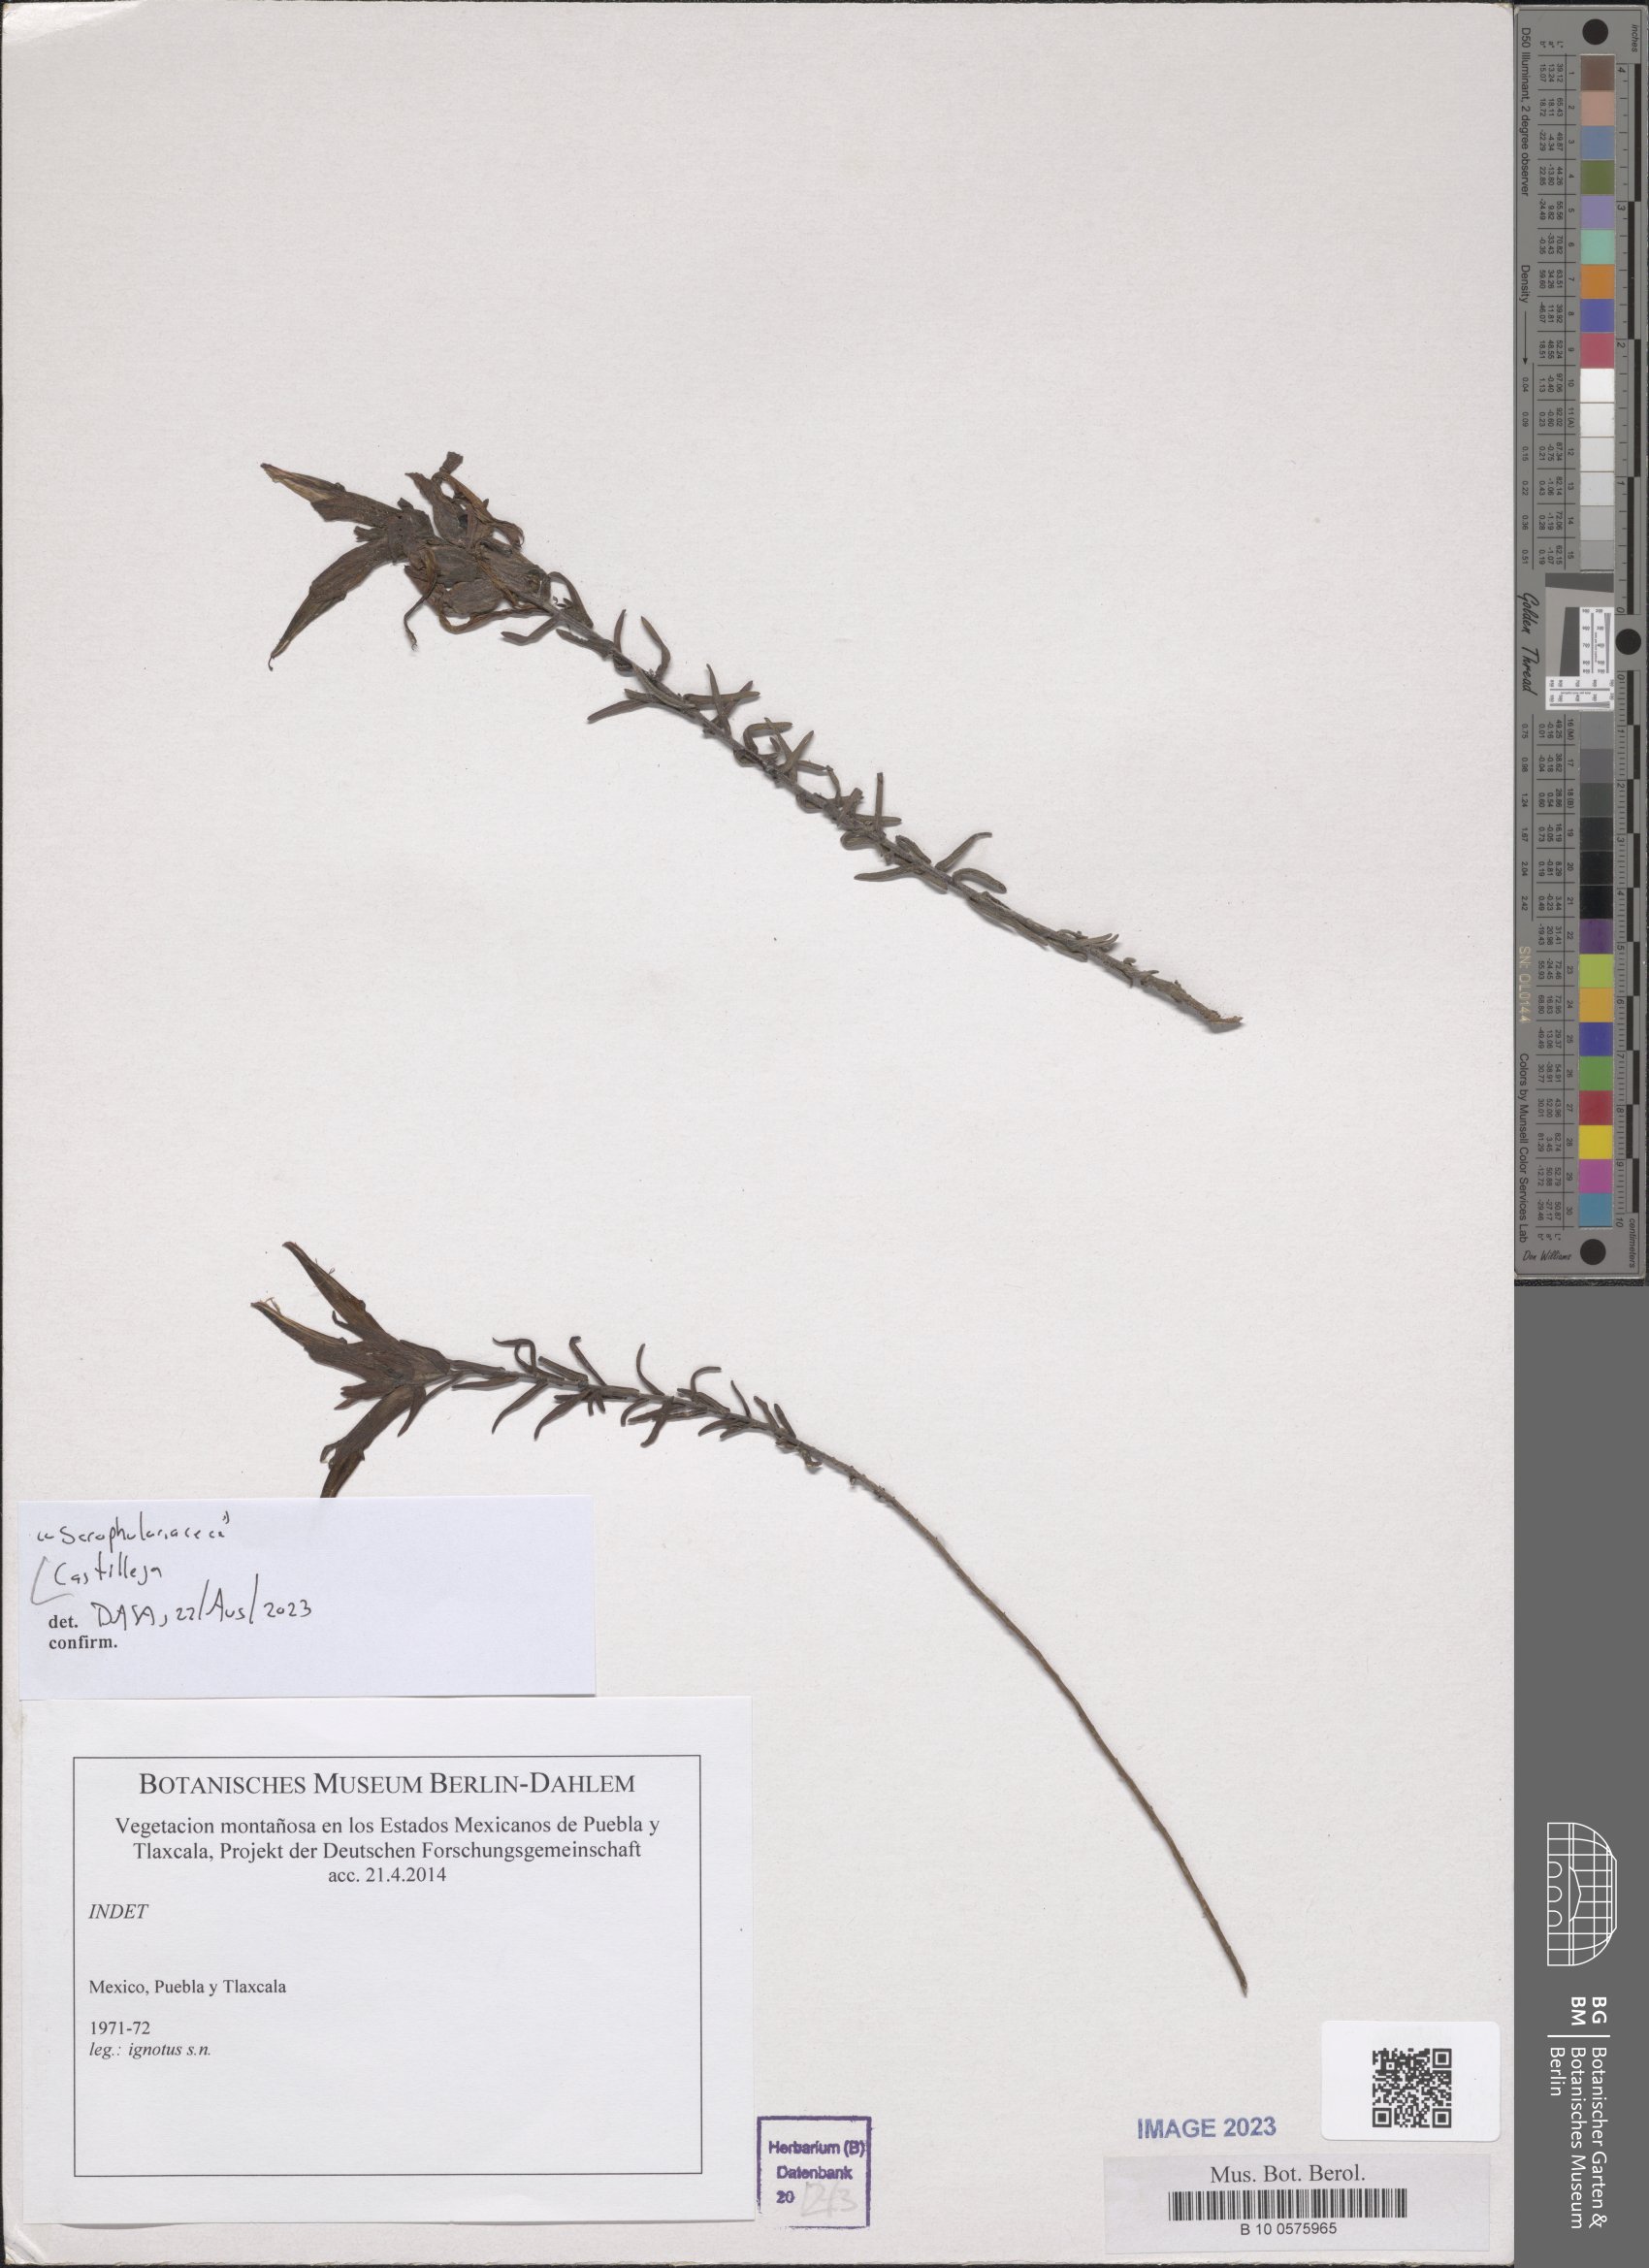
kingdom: Plantae
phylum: Tracheophyta
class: Magnoliopsida
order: Lamiales
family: Orobanchaceae
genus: Castilleja
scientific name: Castilleja
